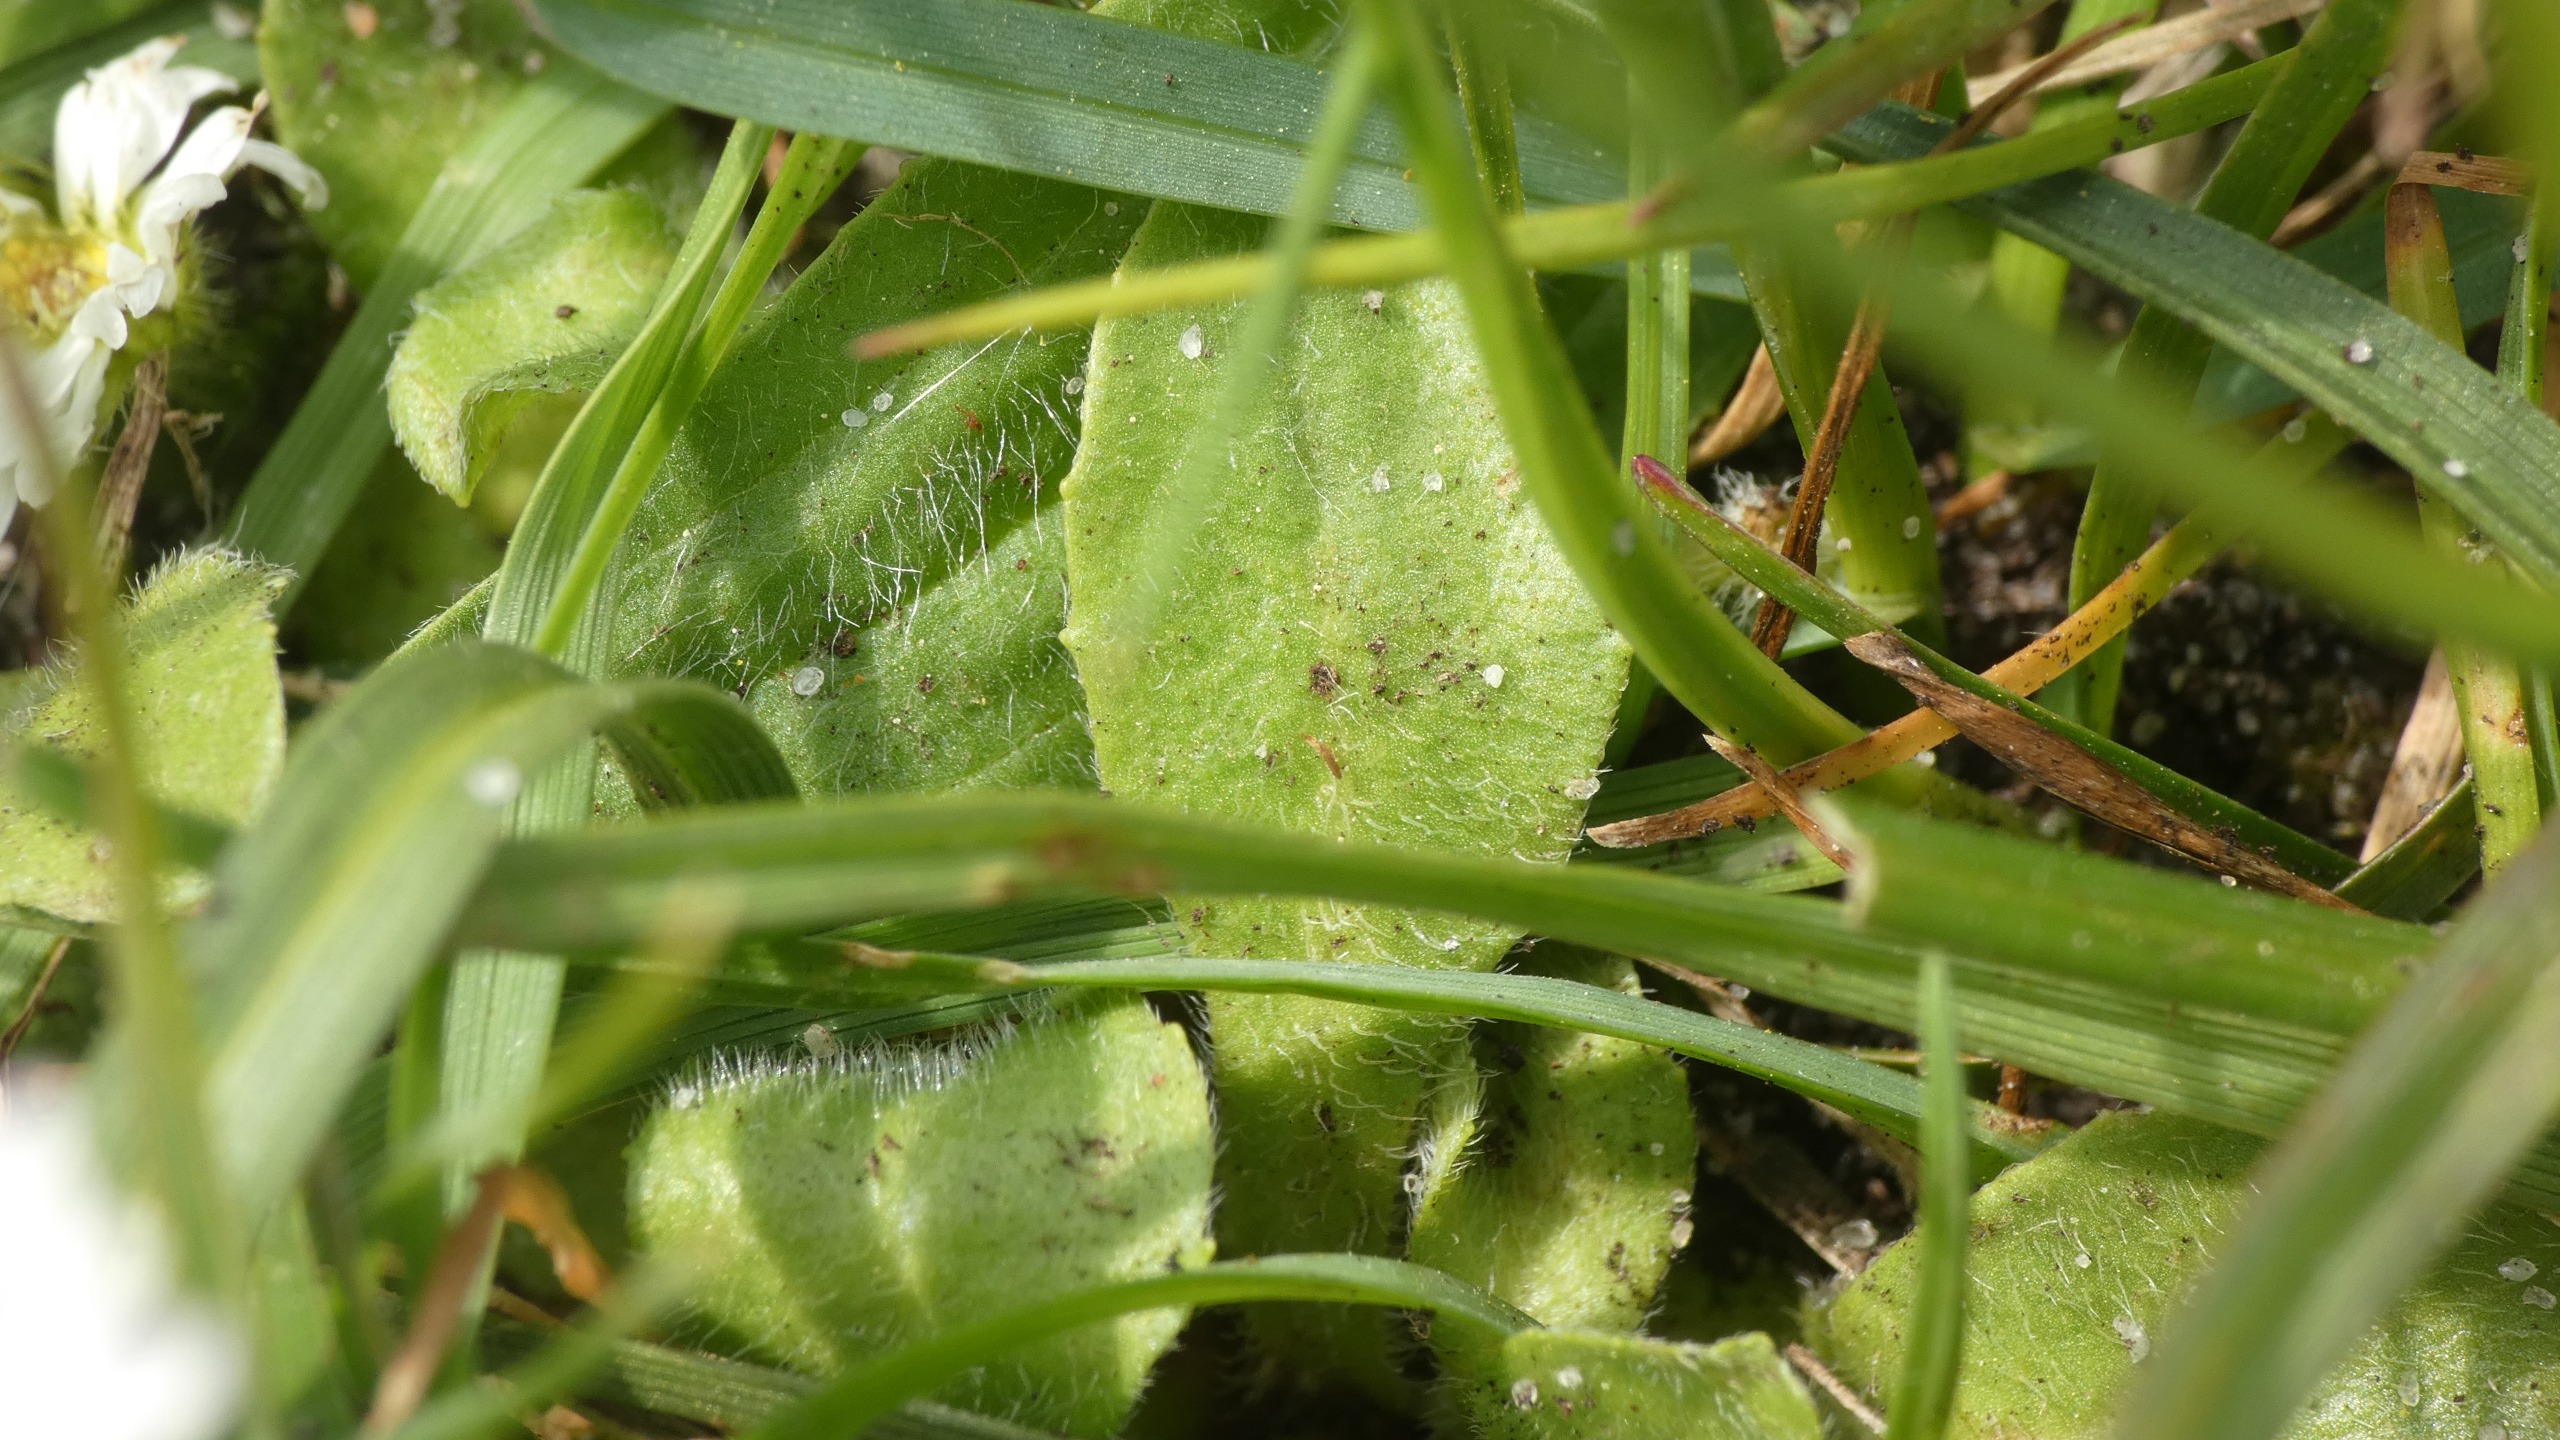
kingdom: Plantae
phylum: Tracheophyta
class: Magnoliopsida
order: Asterales
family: Asteraceae
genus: Bellis
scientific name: Bellis perennis
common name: Tusindfryd
